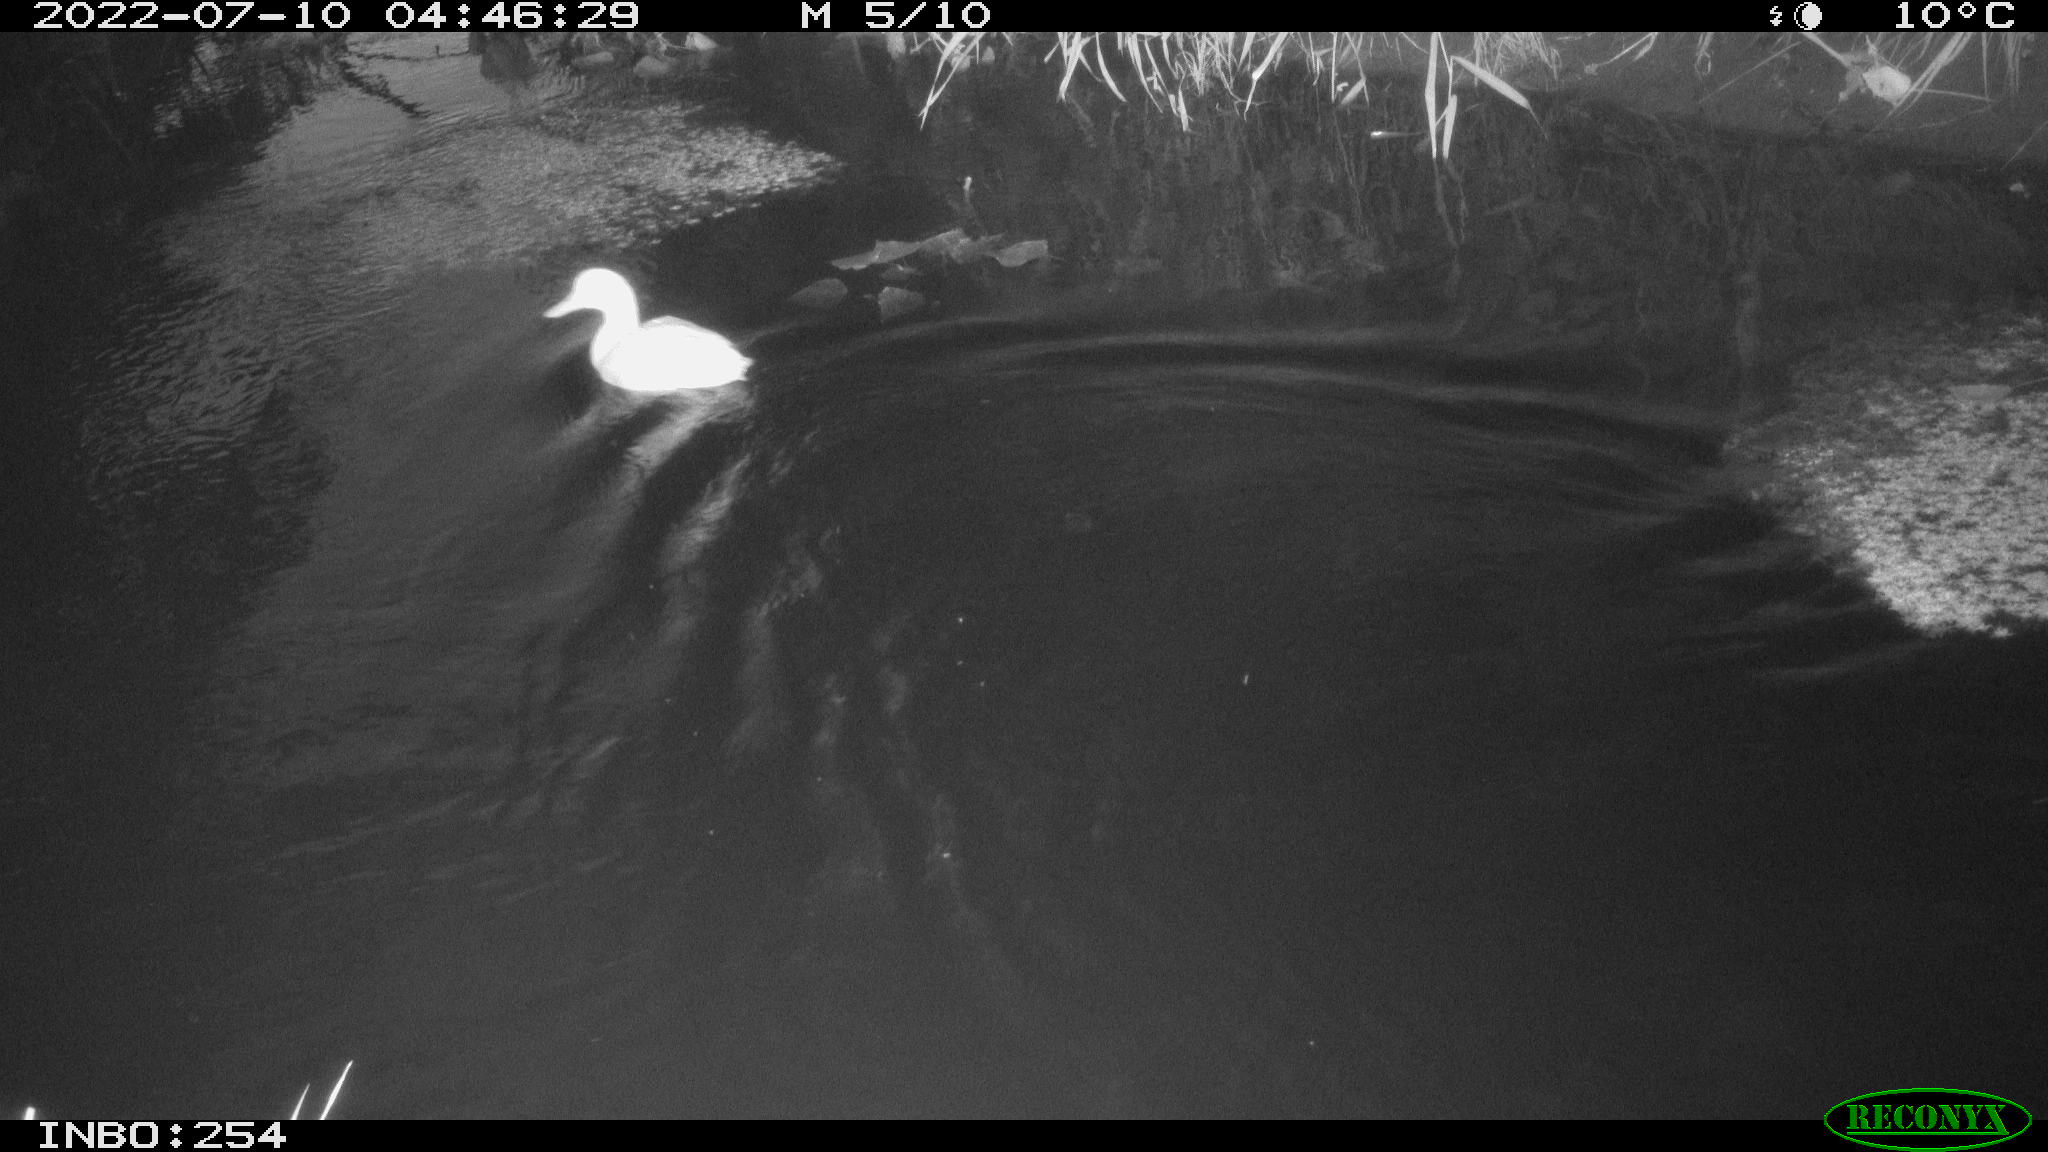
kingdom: Animalia
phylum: Chordata
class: Aves
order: Anseriformes
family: Anatidae
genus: Anas
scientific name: Anas platyrhynchos
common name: Mallard
